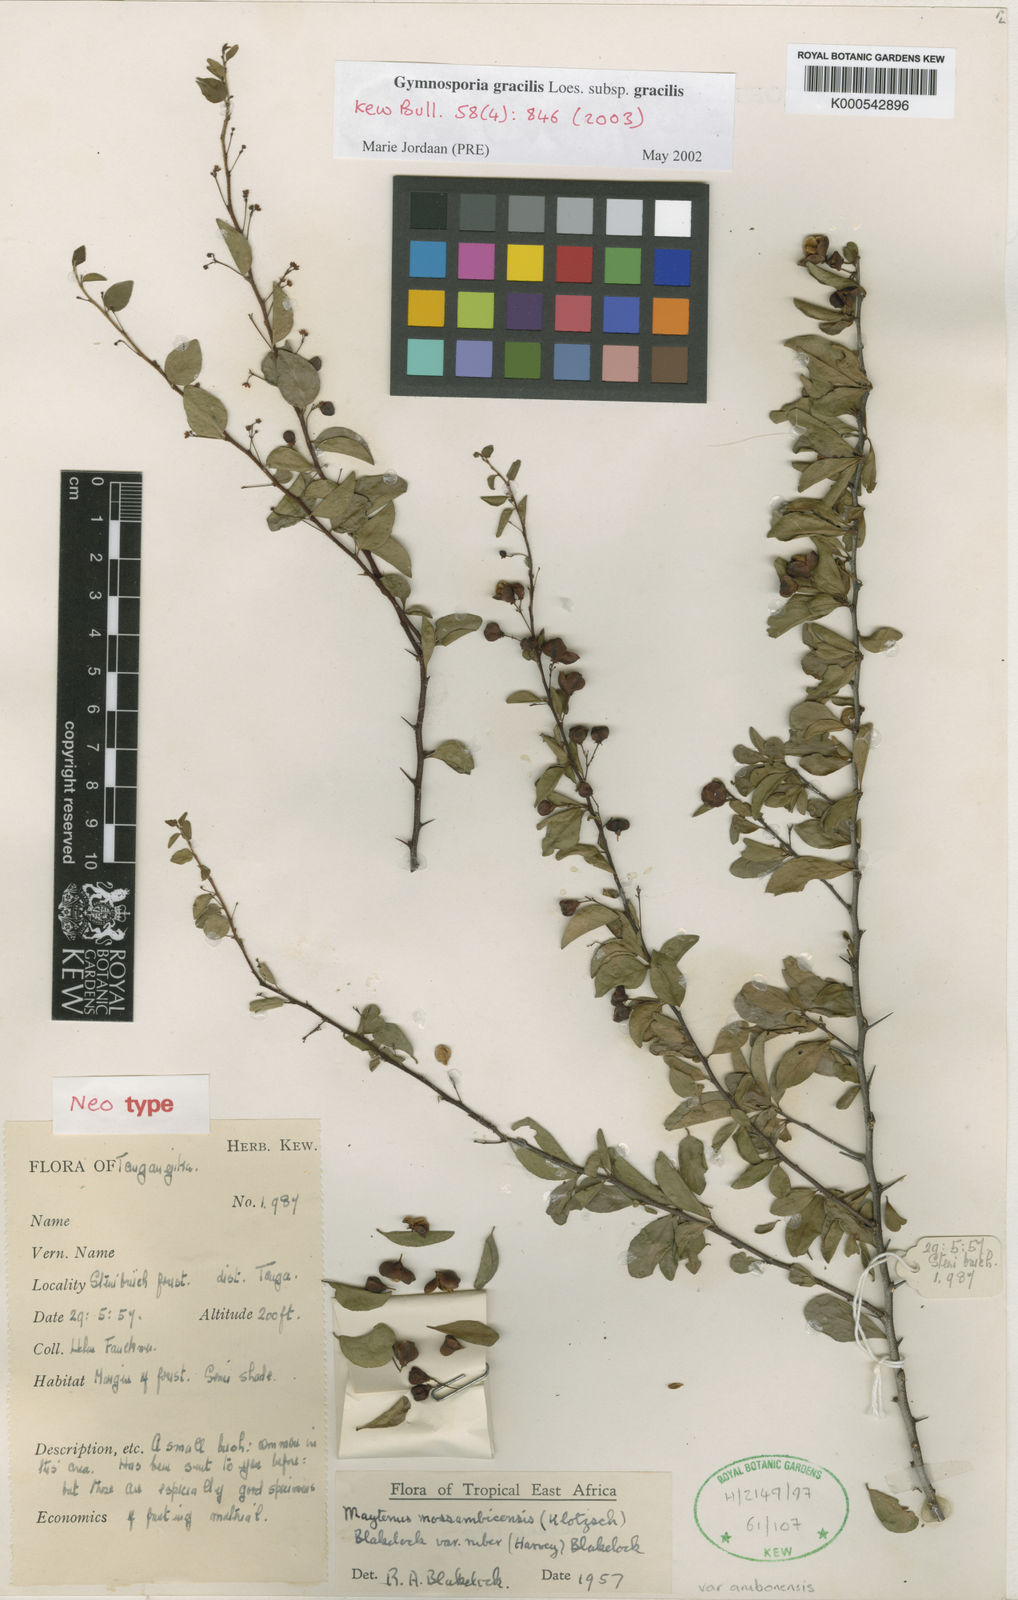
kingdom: Plantae
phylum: Tracheophyta
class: Magnoliopsida
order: Celastrales
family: Celastraceae
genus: Gymnosporia
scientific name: Gymnosporia mossambicensis
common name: Black forest spike-thorn
